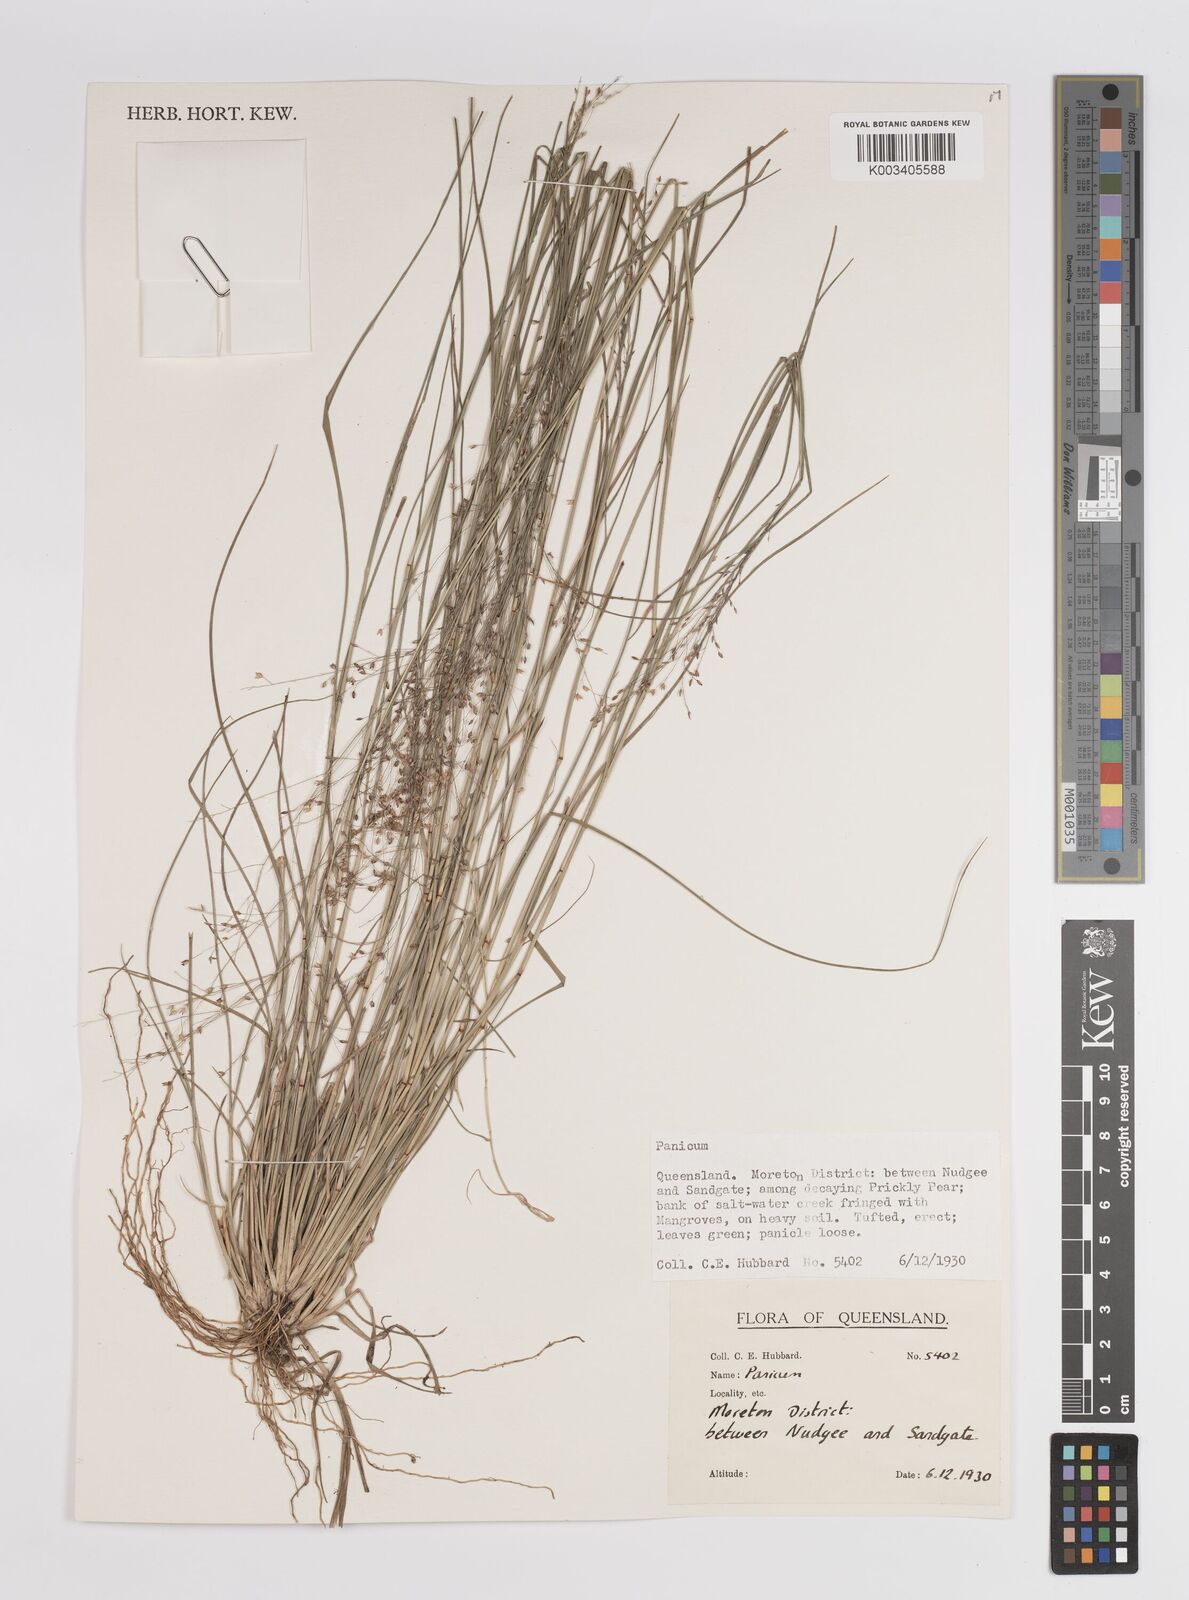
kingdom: Plantae
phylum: Tracheophyta
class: Liliopsida
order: Poales
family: Poaceae
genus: Panicum
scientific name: Panicum
